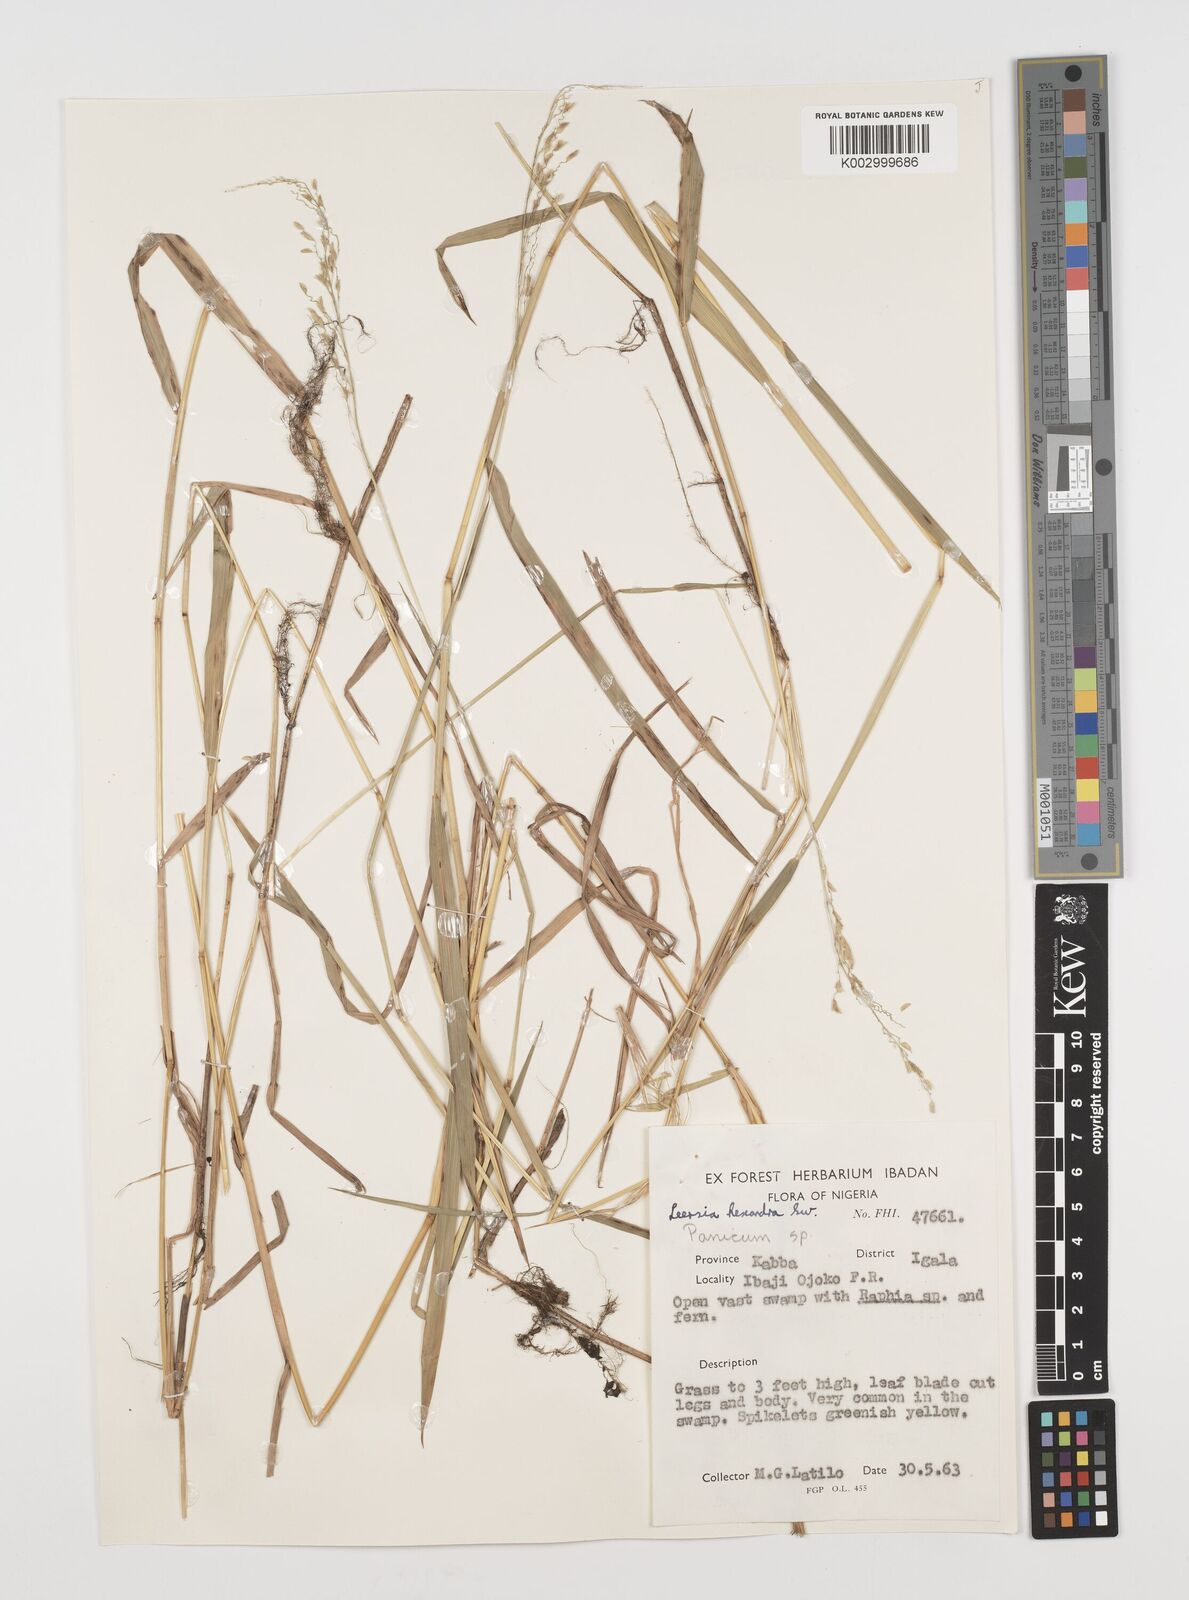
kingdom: Plantae
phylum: Tracheophyta
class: Liliopsida
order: Poales
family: Poaceae
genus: Leersia
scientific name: Leersia hexandra
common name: Southern cut grass
